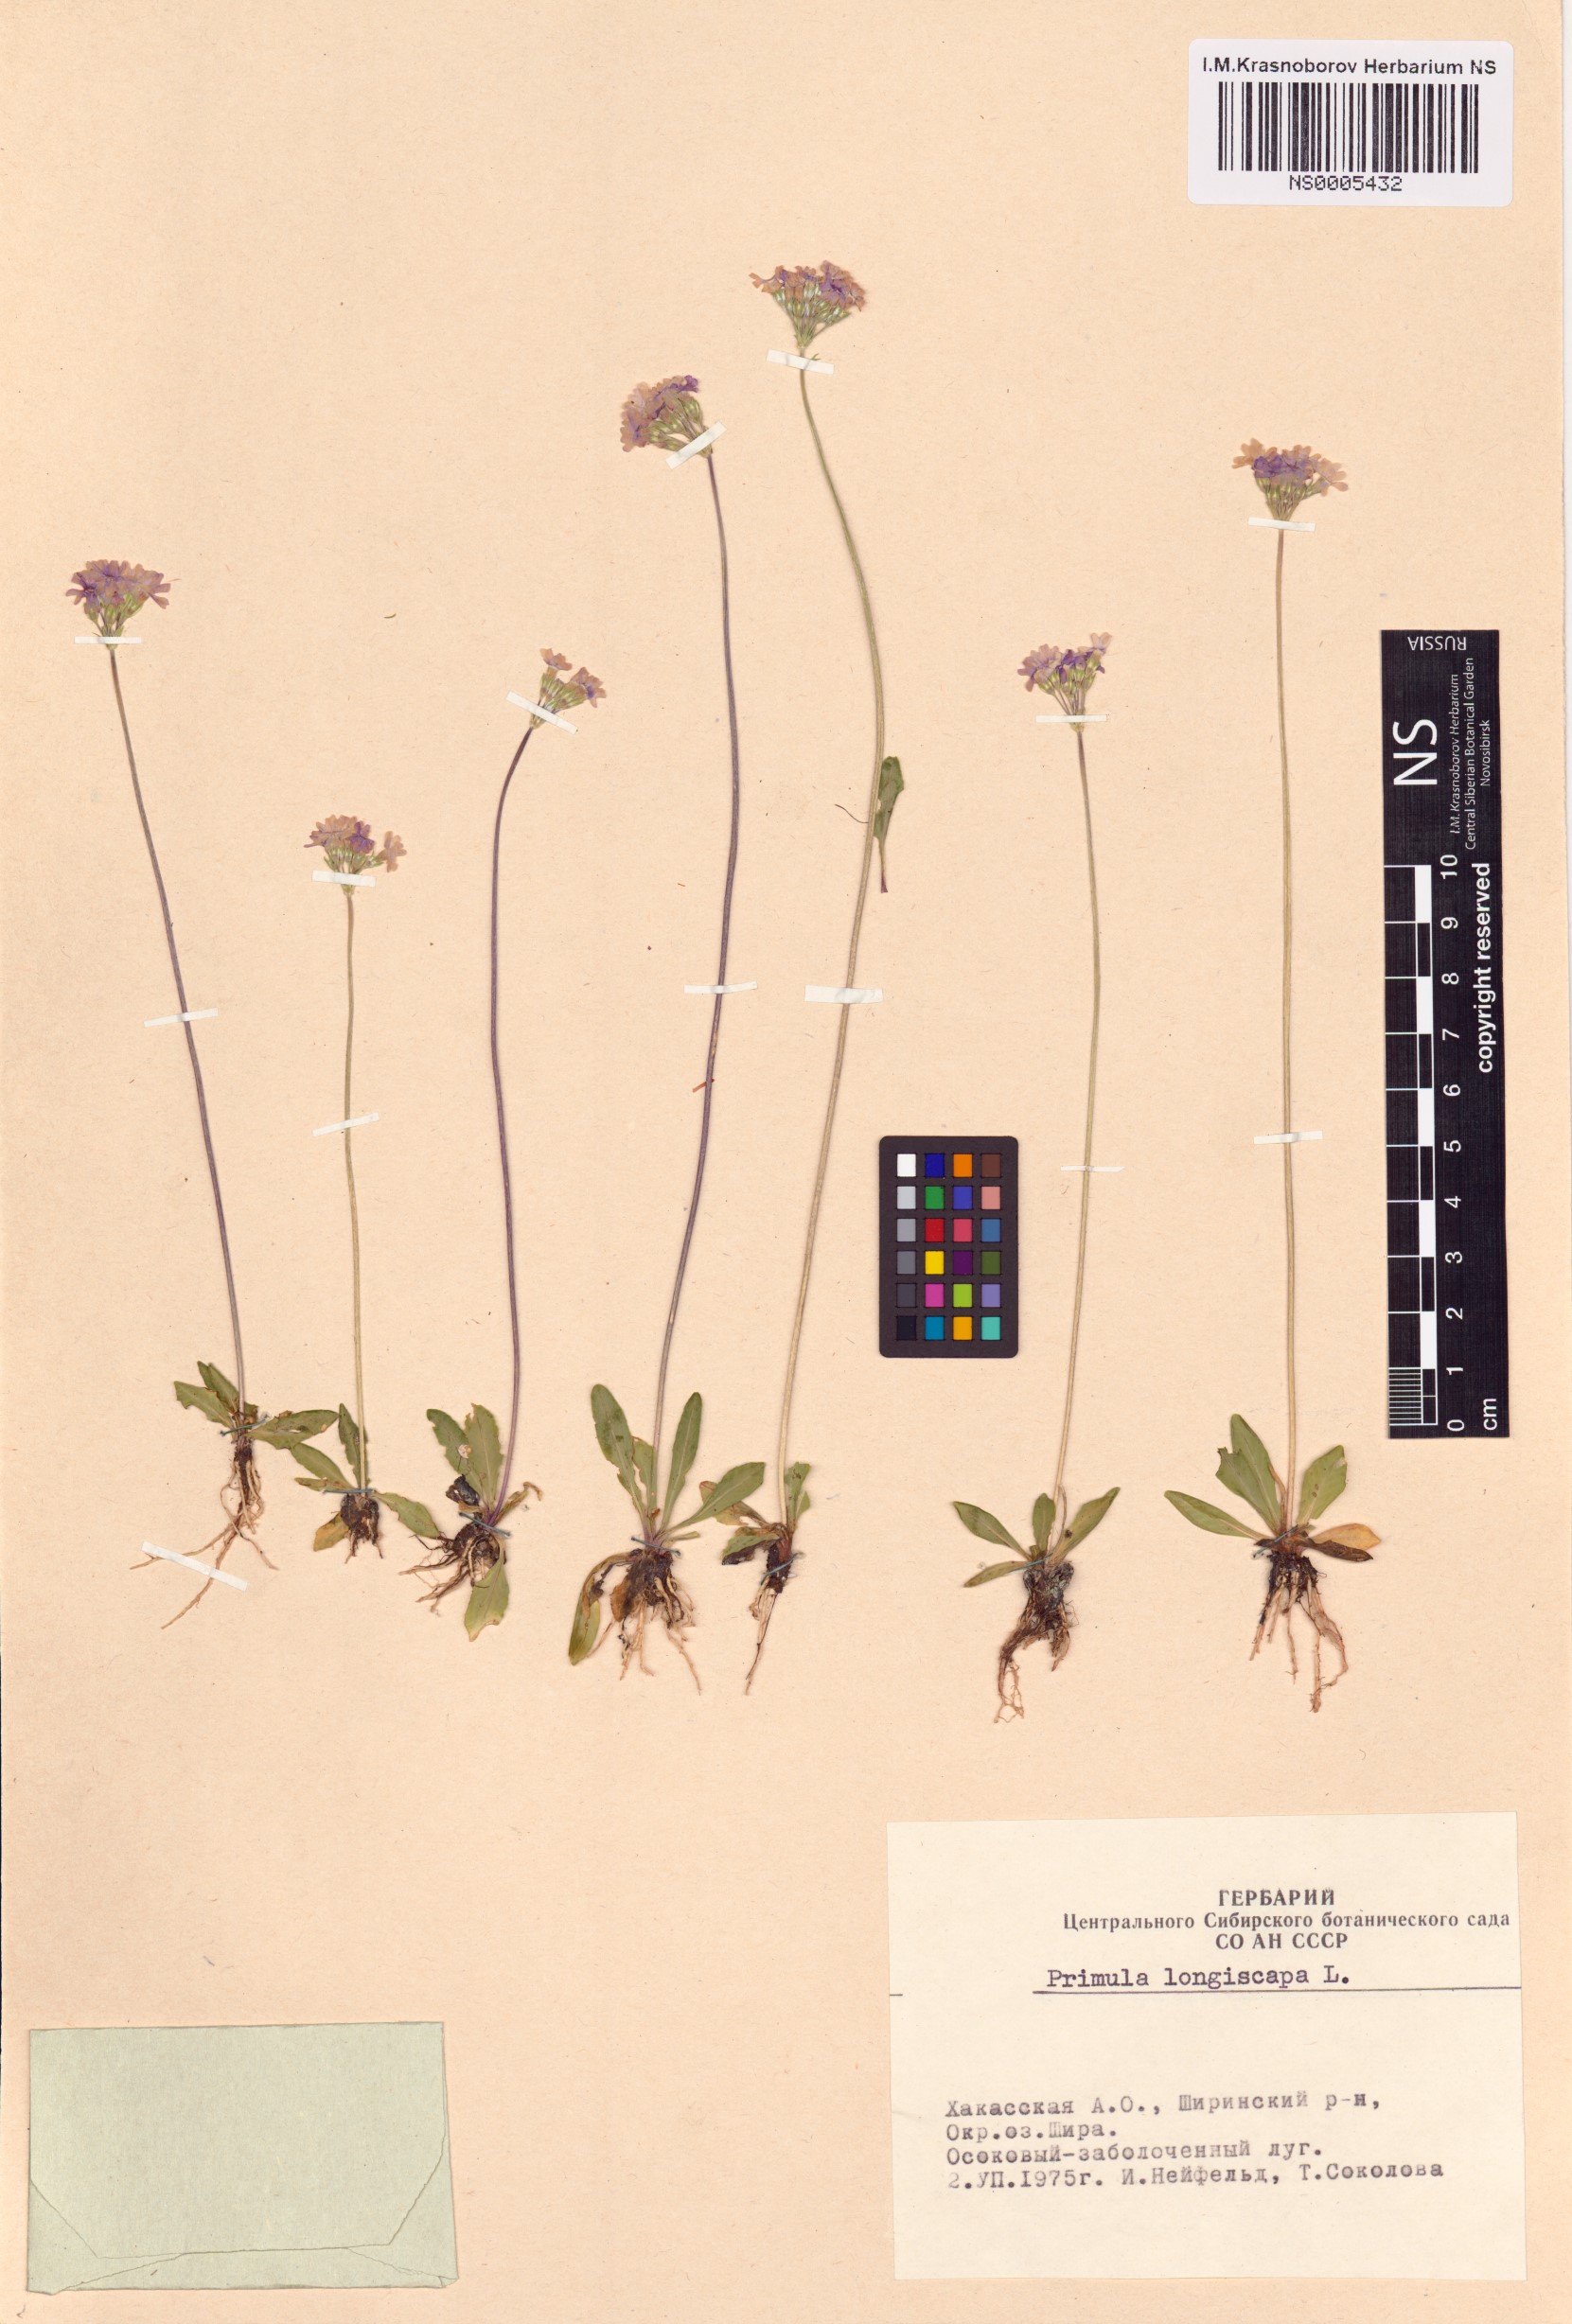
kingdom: Plantae
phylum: Tracheophyta
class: Magnoliopsida
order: Ericales
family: Primulaceae
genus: Primula
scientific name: Primula longiscapa
